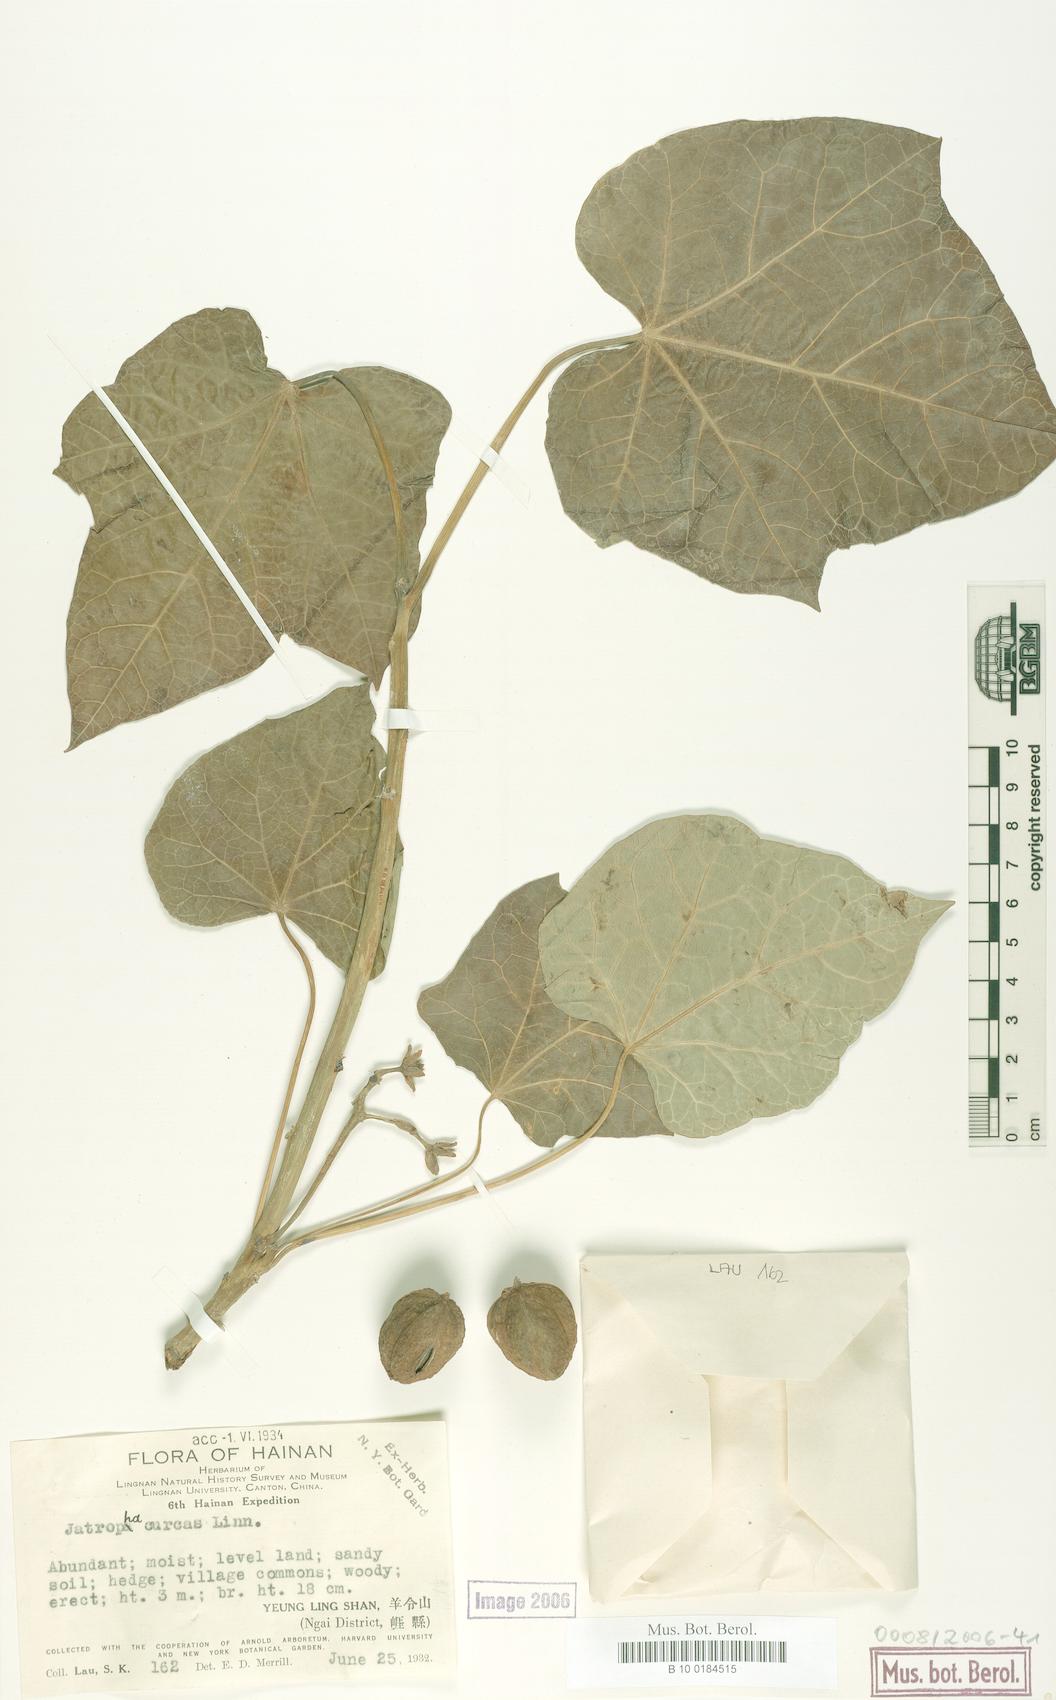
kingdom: Plantae
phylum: Tracheophyta
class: Magnoliopsida
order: Malpighiales
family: Euphorbiaceae
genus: Jatropha
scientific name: Jatropha curcas
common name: Barbados nut
